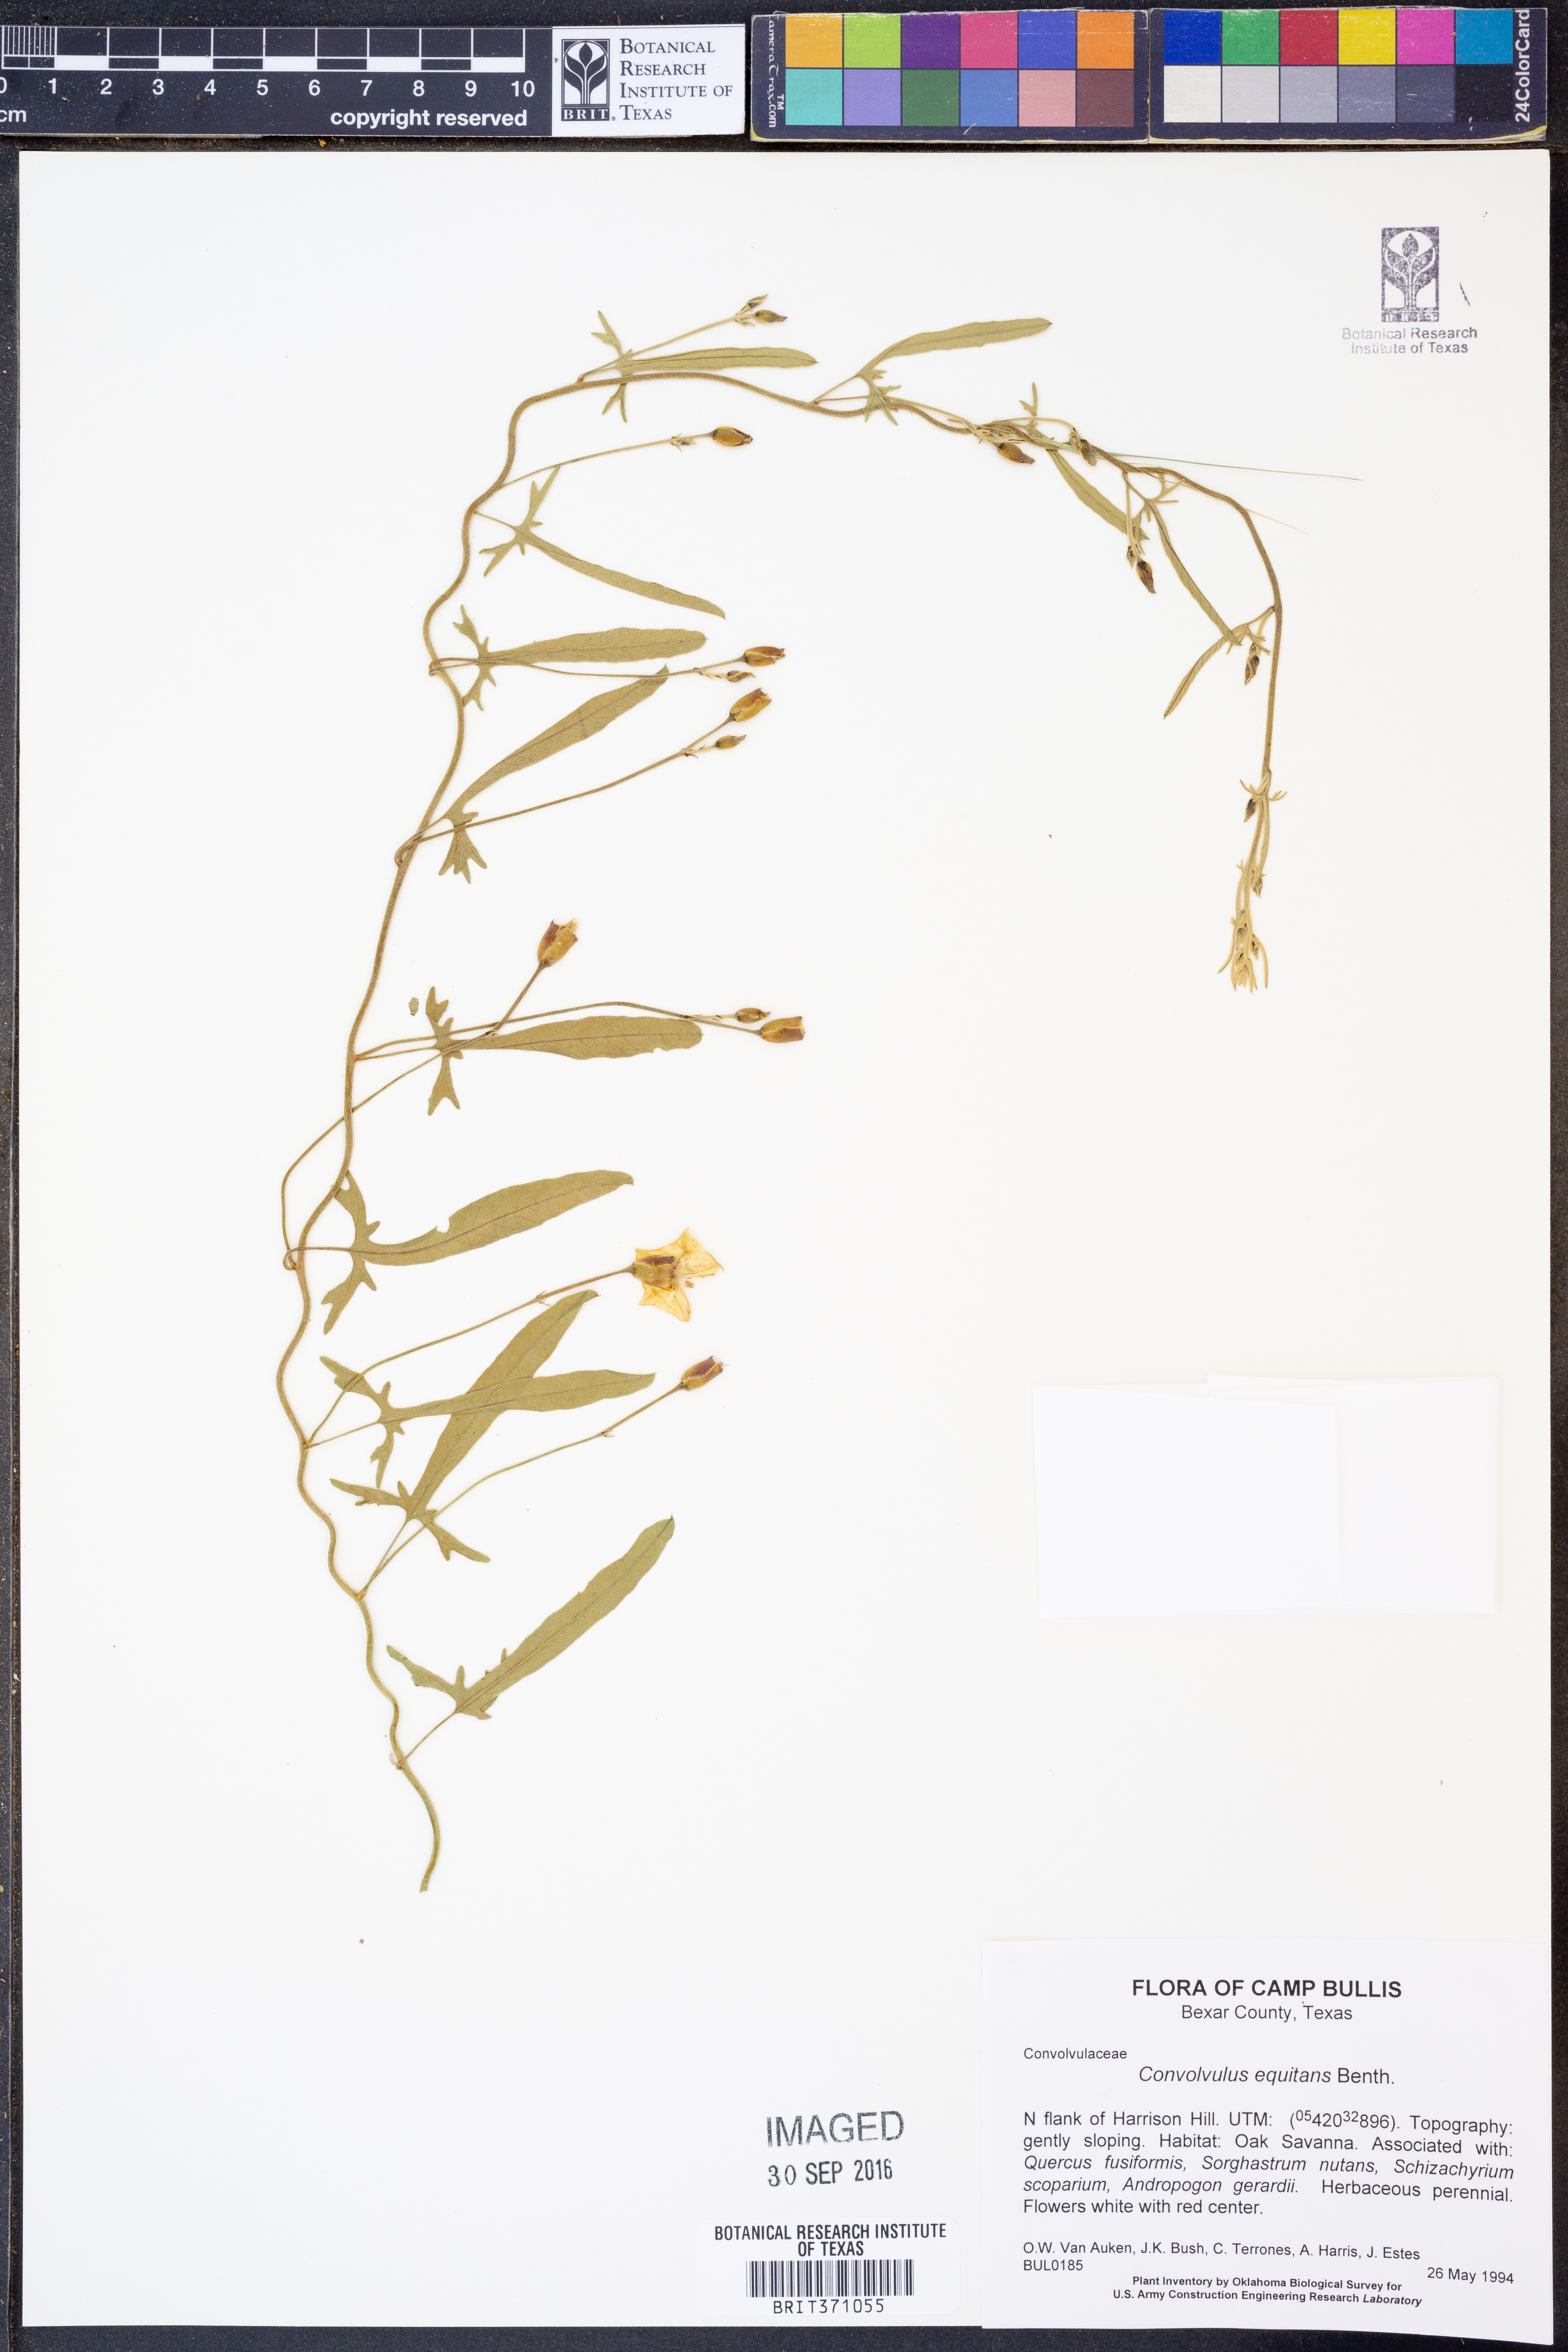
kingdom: Plantae
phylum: Tracheophyta
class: Magnoliopsida
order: Solanales
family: Convolvulaceae
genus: Convolvulus
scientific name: Convolvulus equitans
